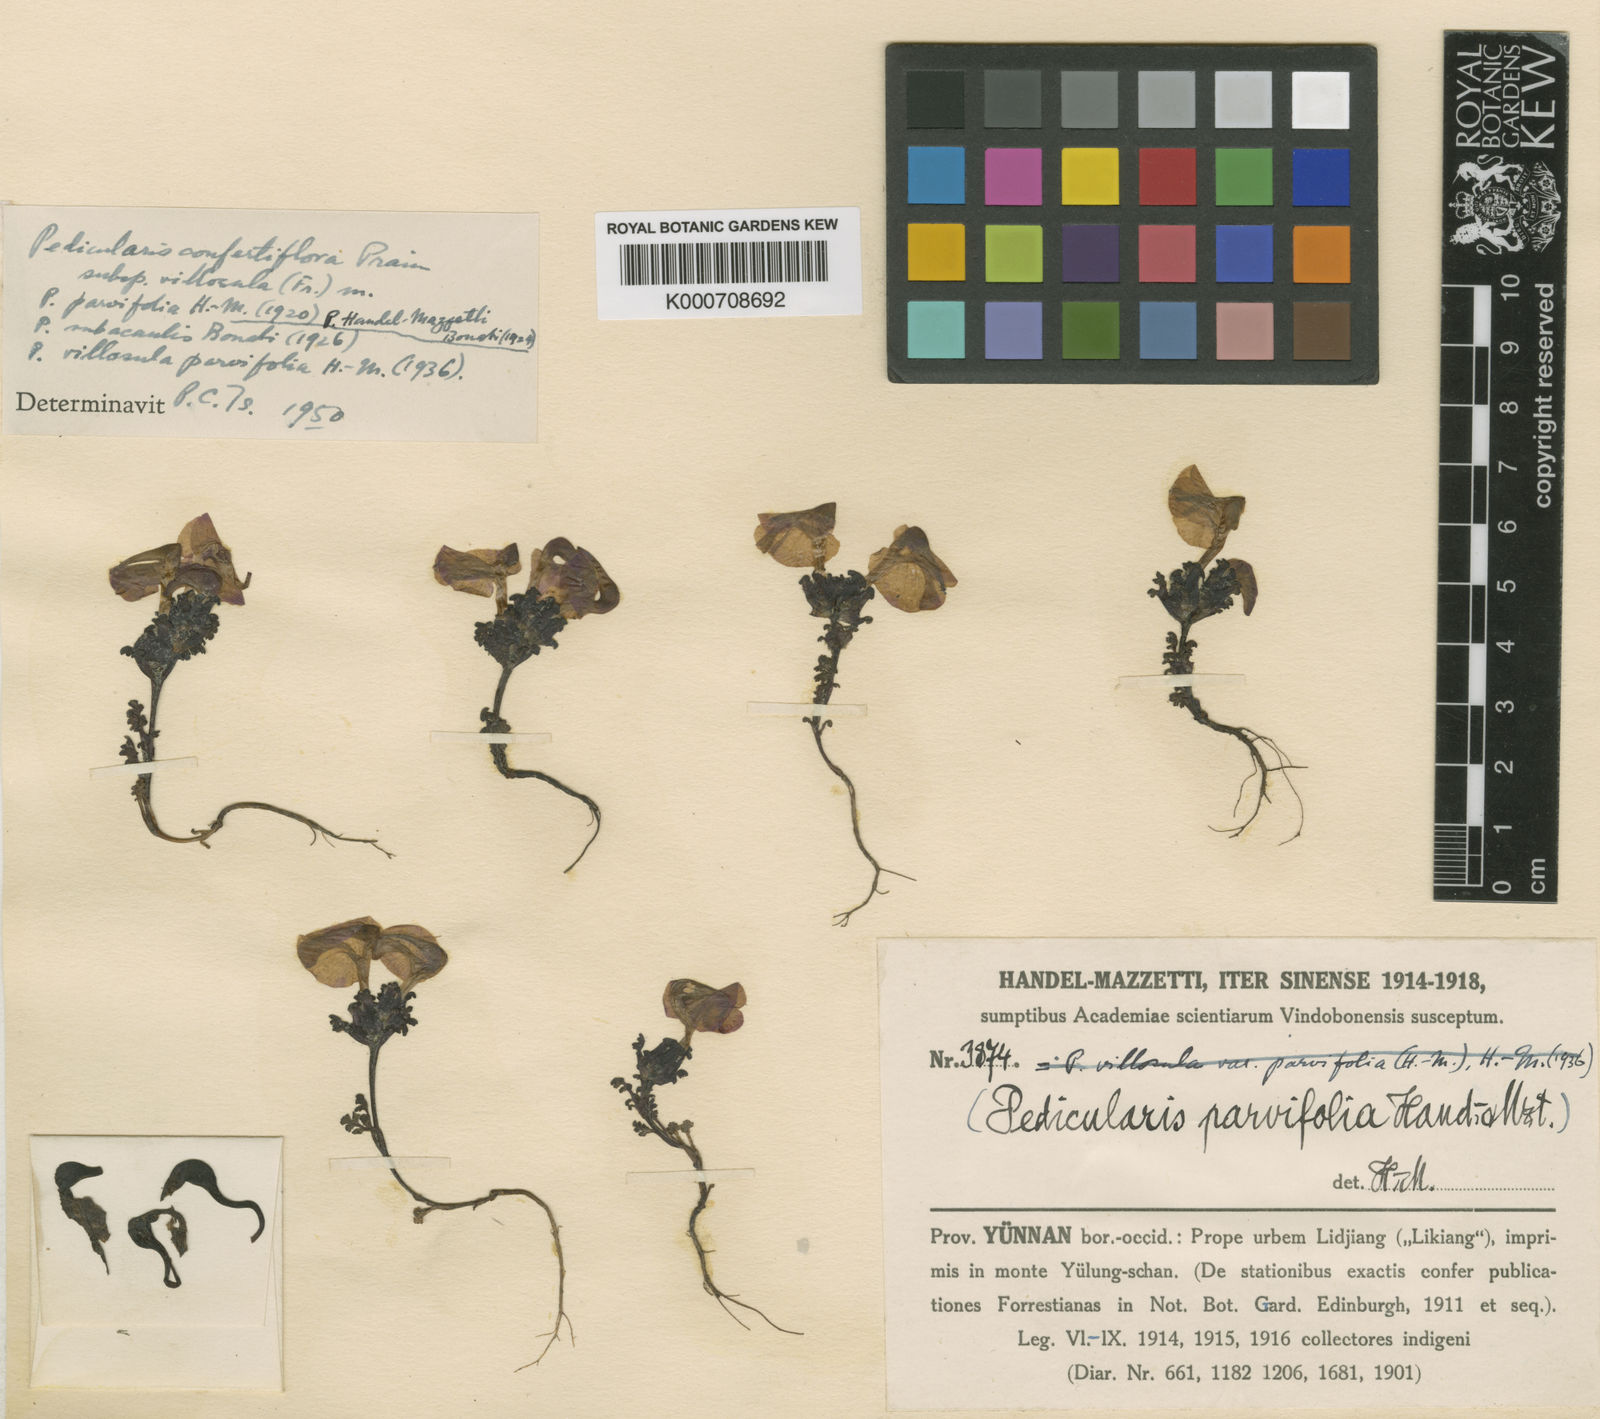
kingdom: Plantae
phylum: Tracheophyta
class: Magnoliopsida
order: Lamiales
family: Orobanchaceae
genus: Pedicularis
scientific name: Pedicularis
